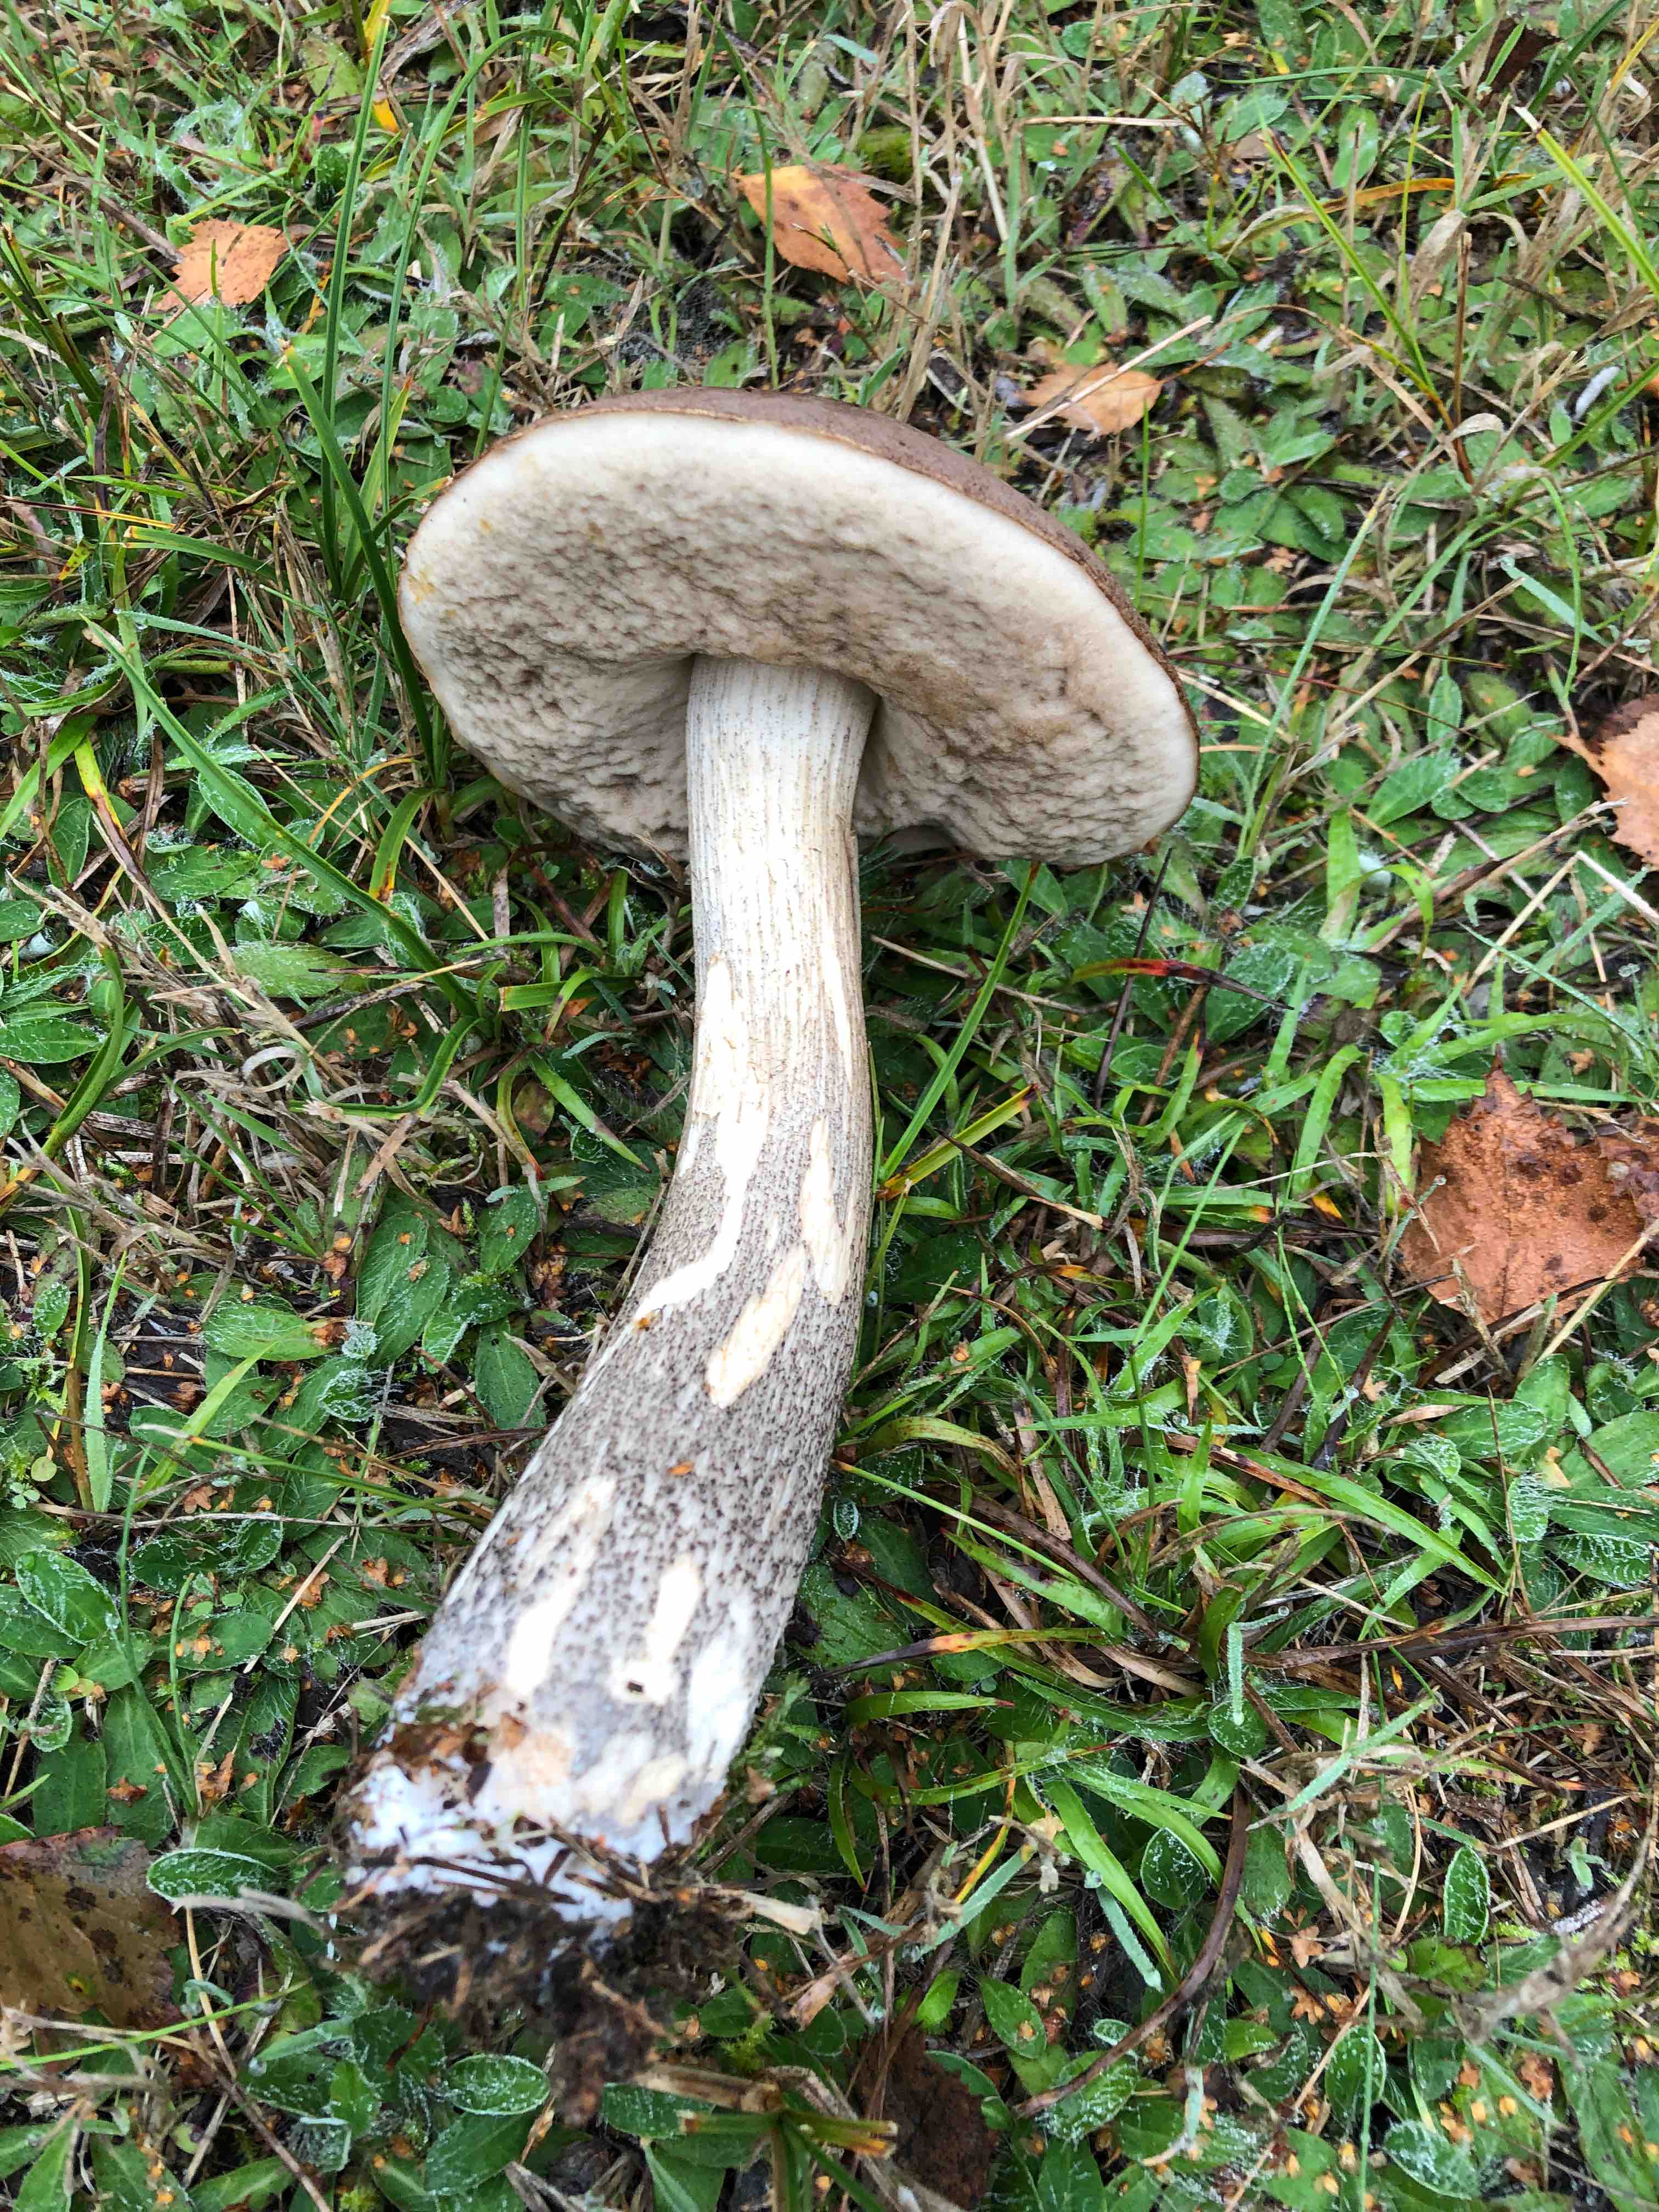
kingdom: Fungi
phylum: Basidiomycota
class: Agaricomycetes
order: Boletales
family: Boletaceae
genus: Leccinum
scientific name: Leccinum
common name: skælrørhat
